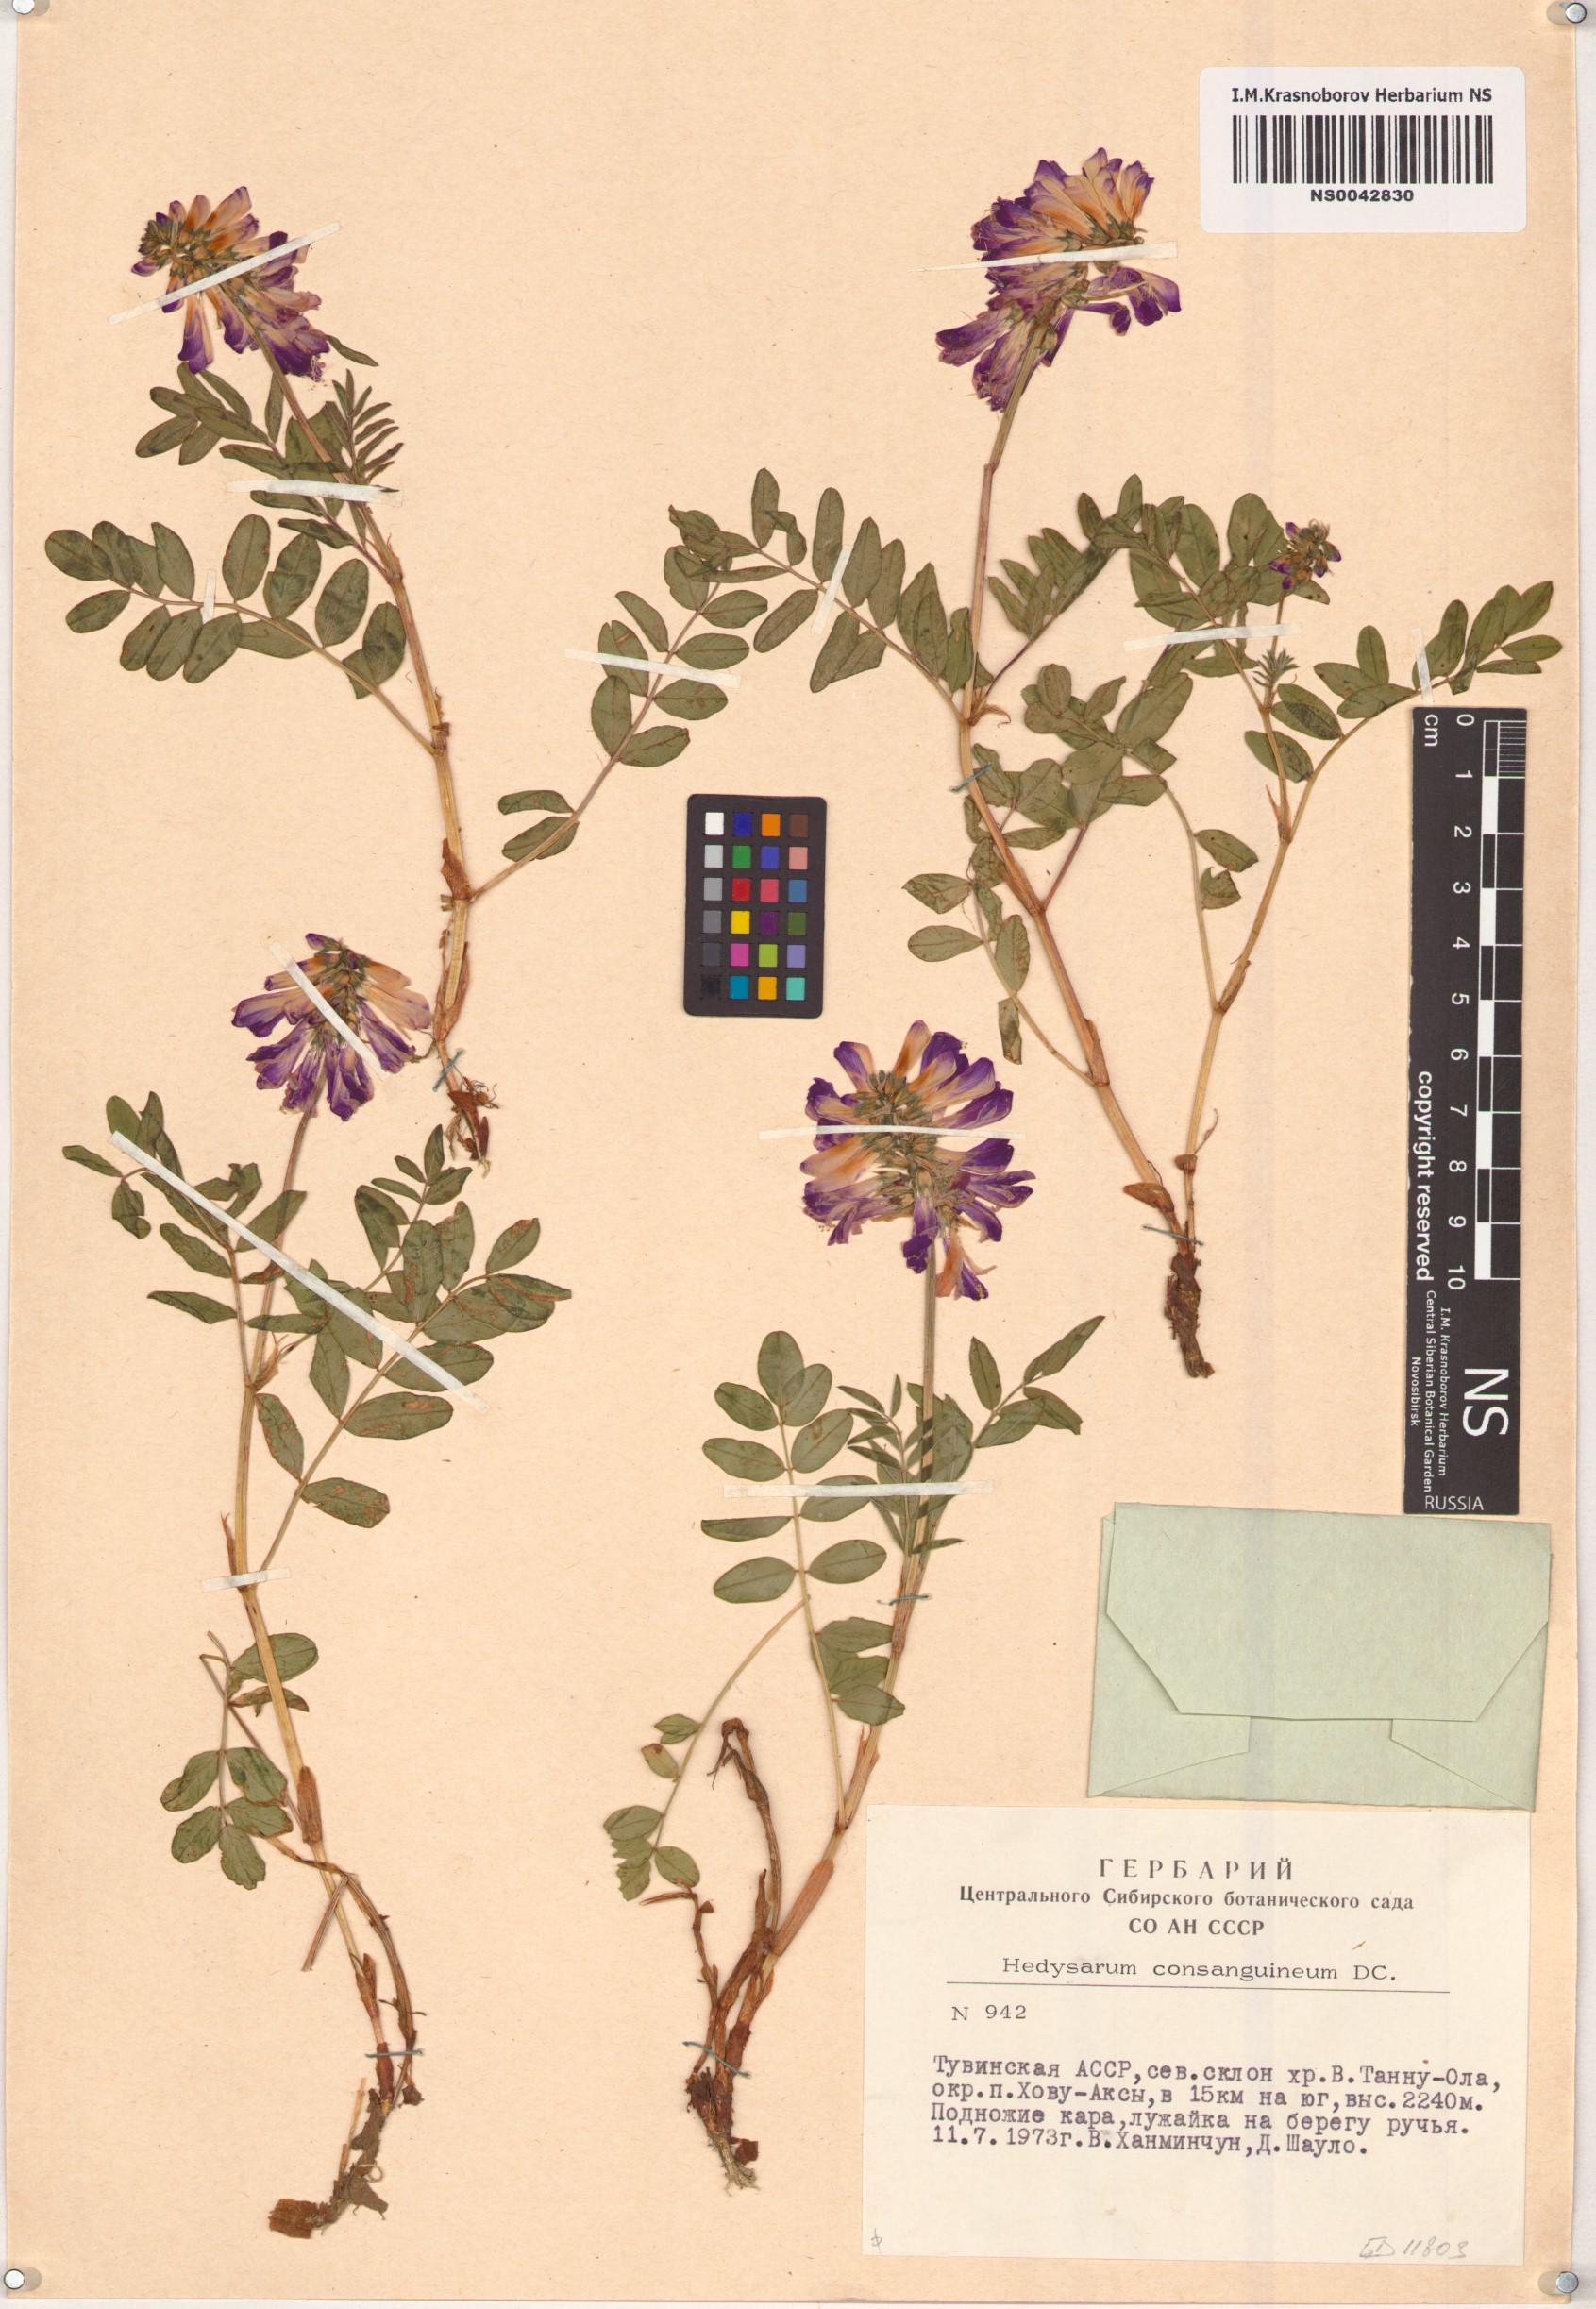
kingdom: Plantae
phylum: Tracheophyta
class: Magnoliopsida
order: Fabales
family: Fabaceae
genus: Hedysarum
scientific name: Hedysarum consanguineum
